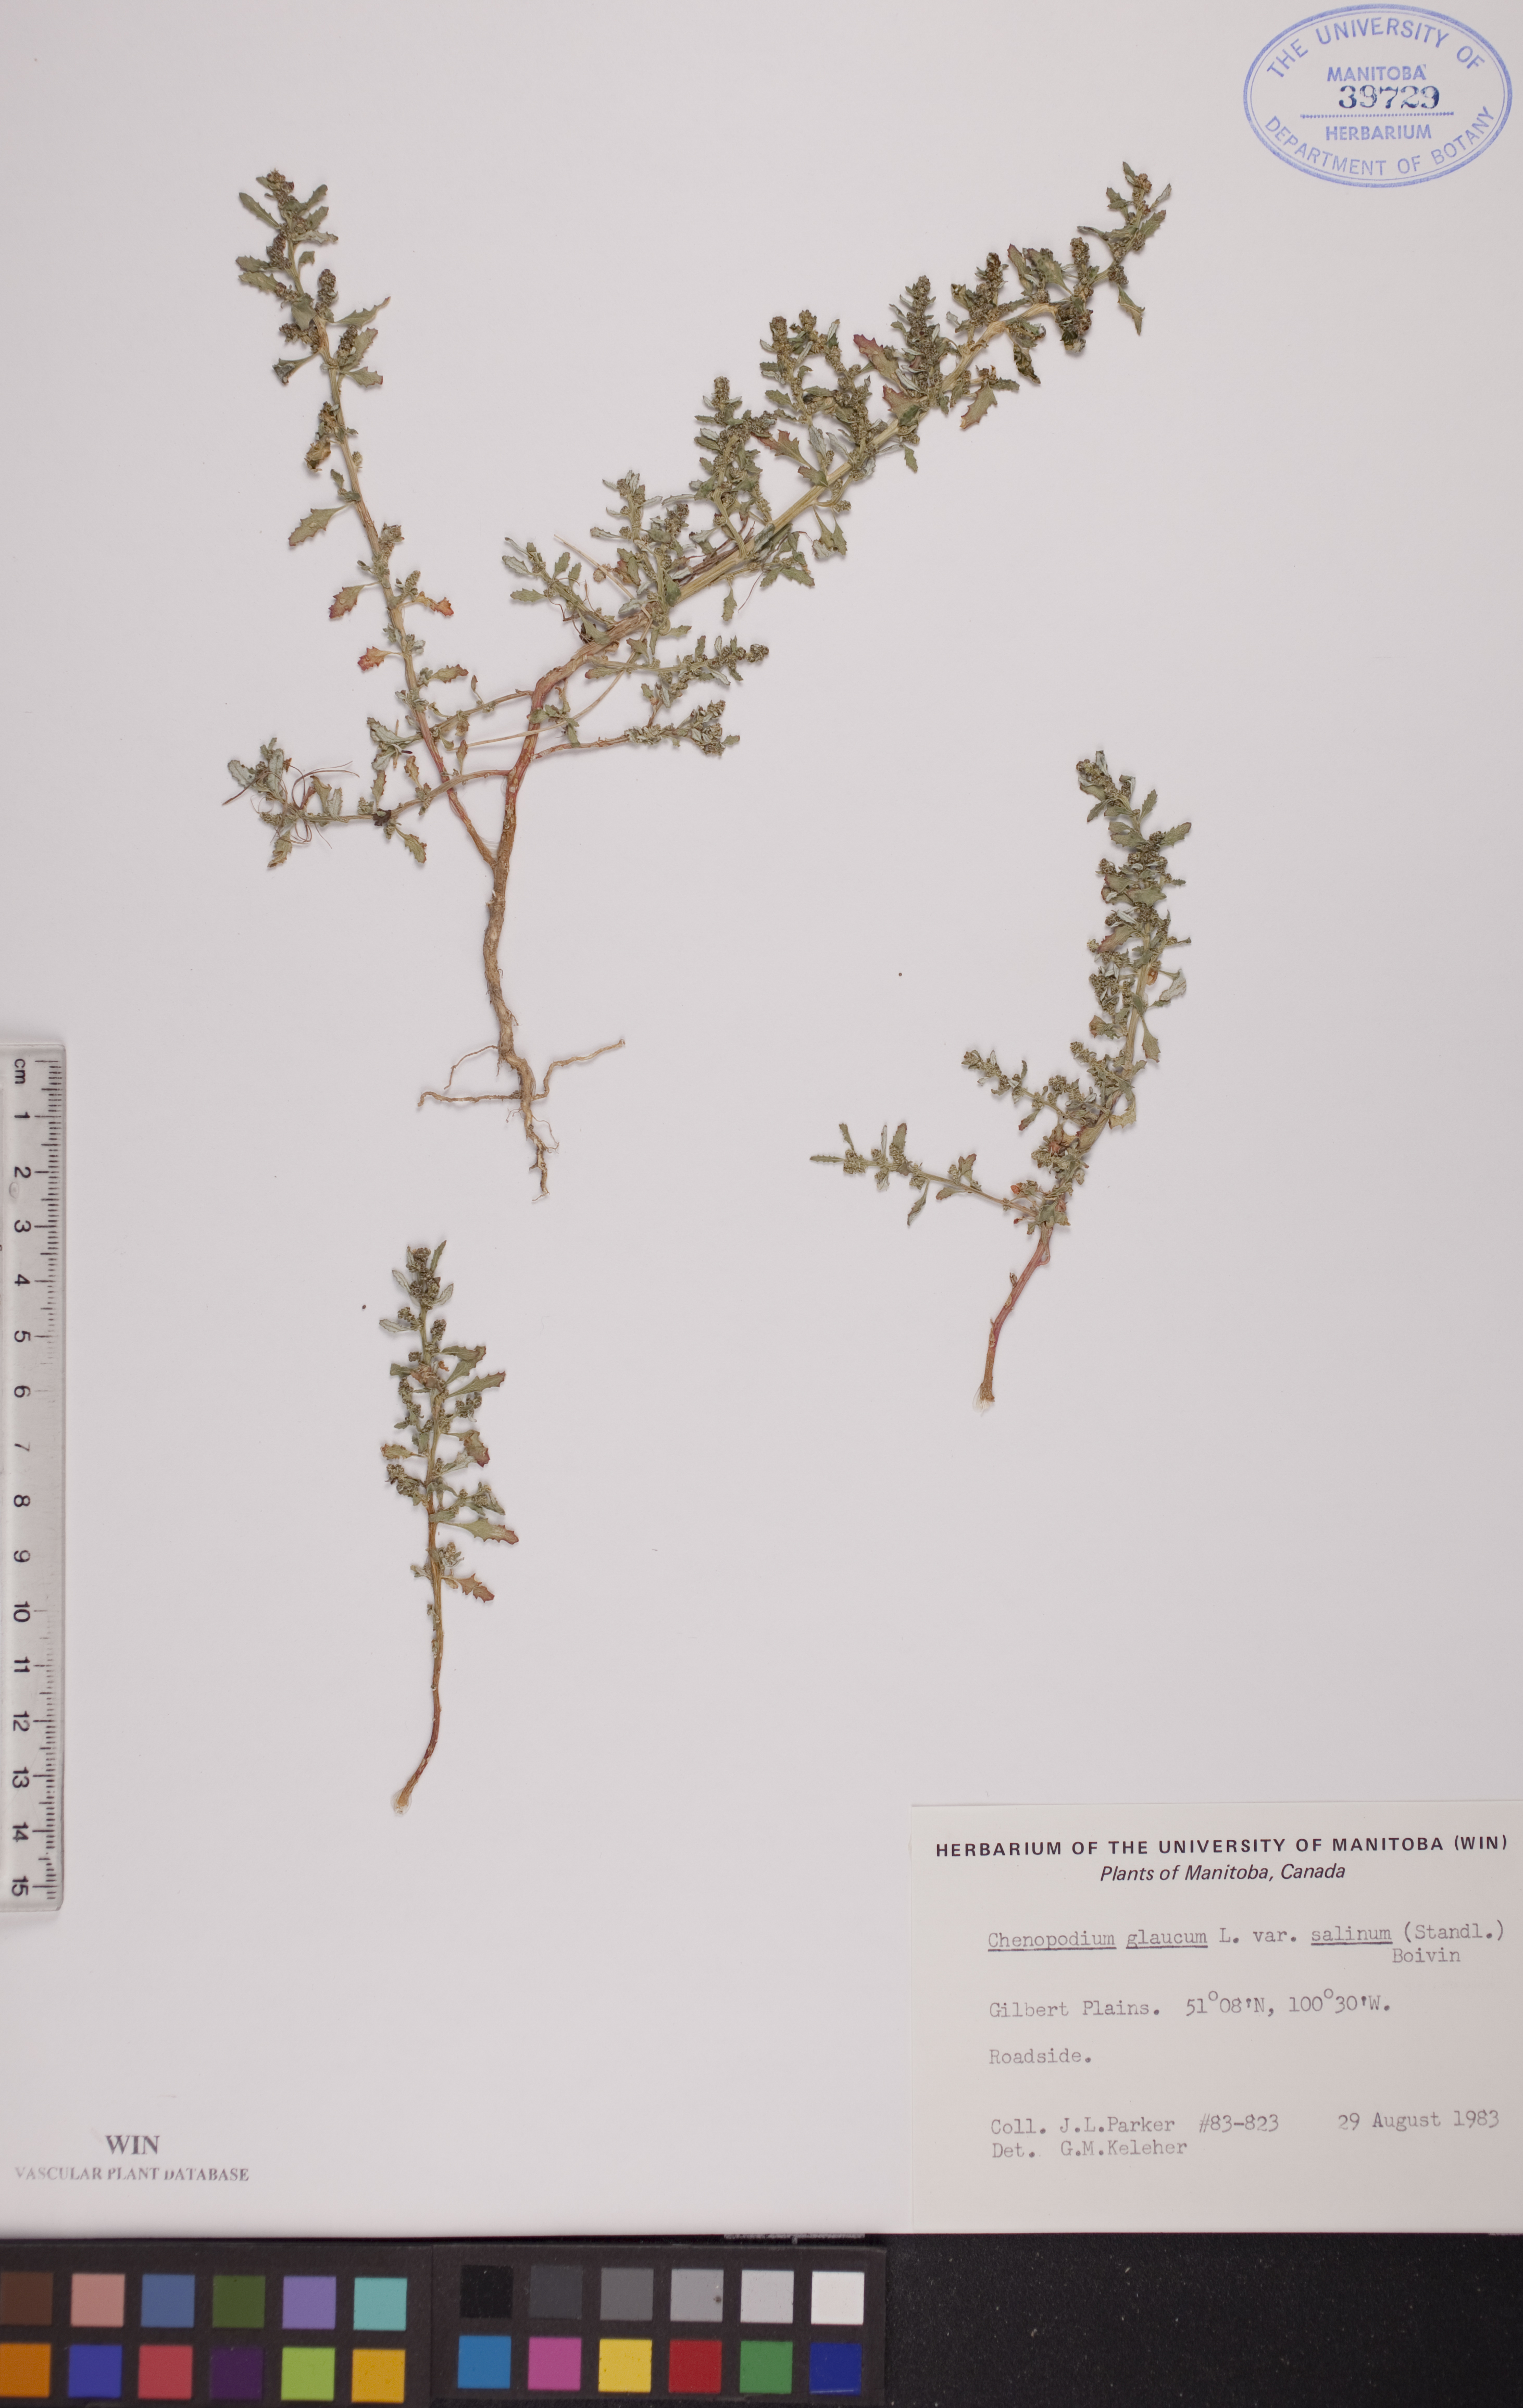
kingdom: Plantae
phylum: Tracheophyta
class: Magnoliopsida
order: Caryophyllales
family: Amaranthaceae
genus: Oxybasis
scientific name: Oxybasis salina
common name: Rocky mountain goosefoot
